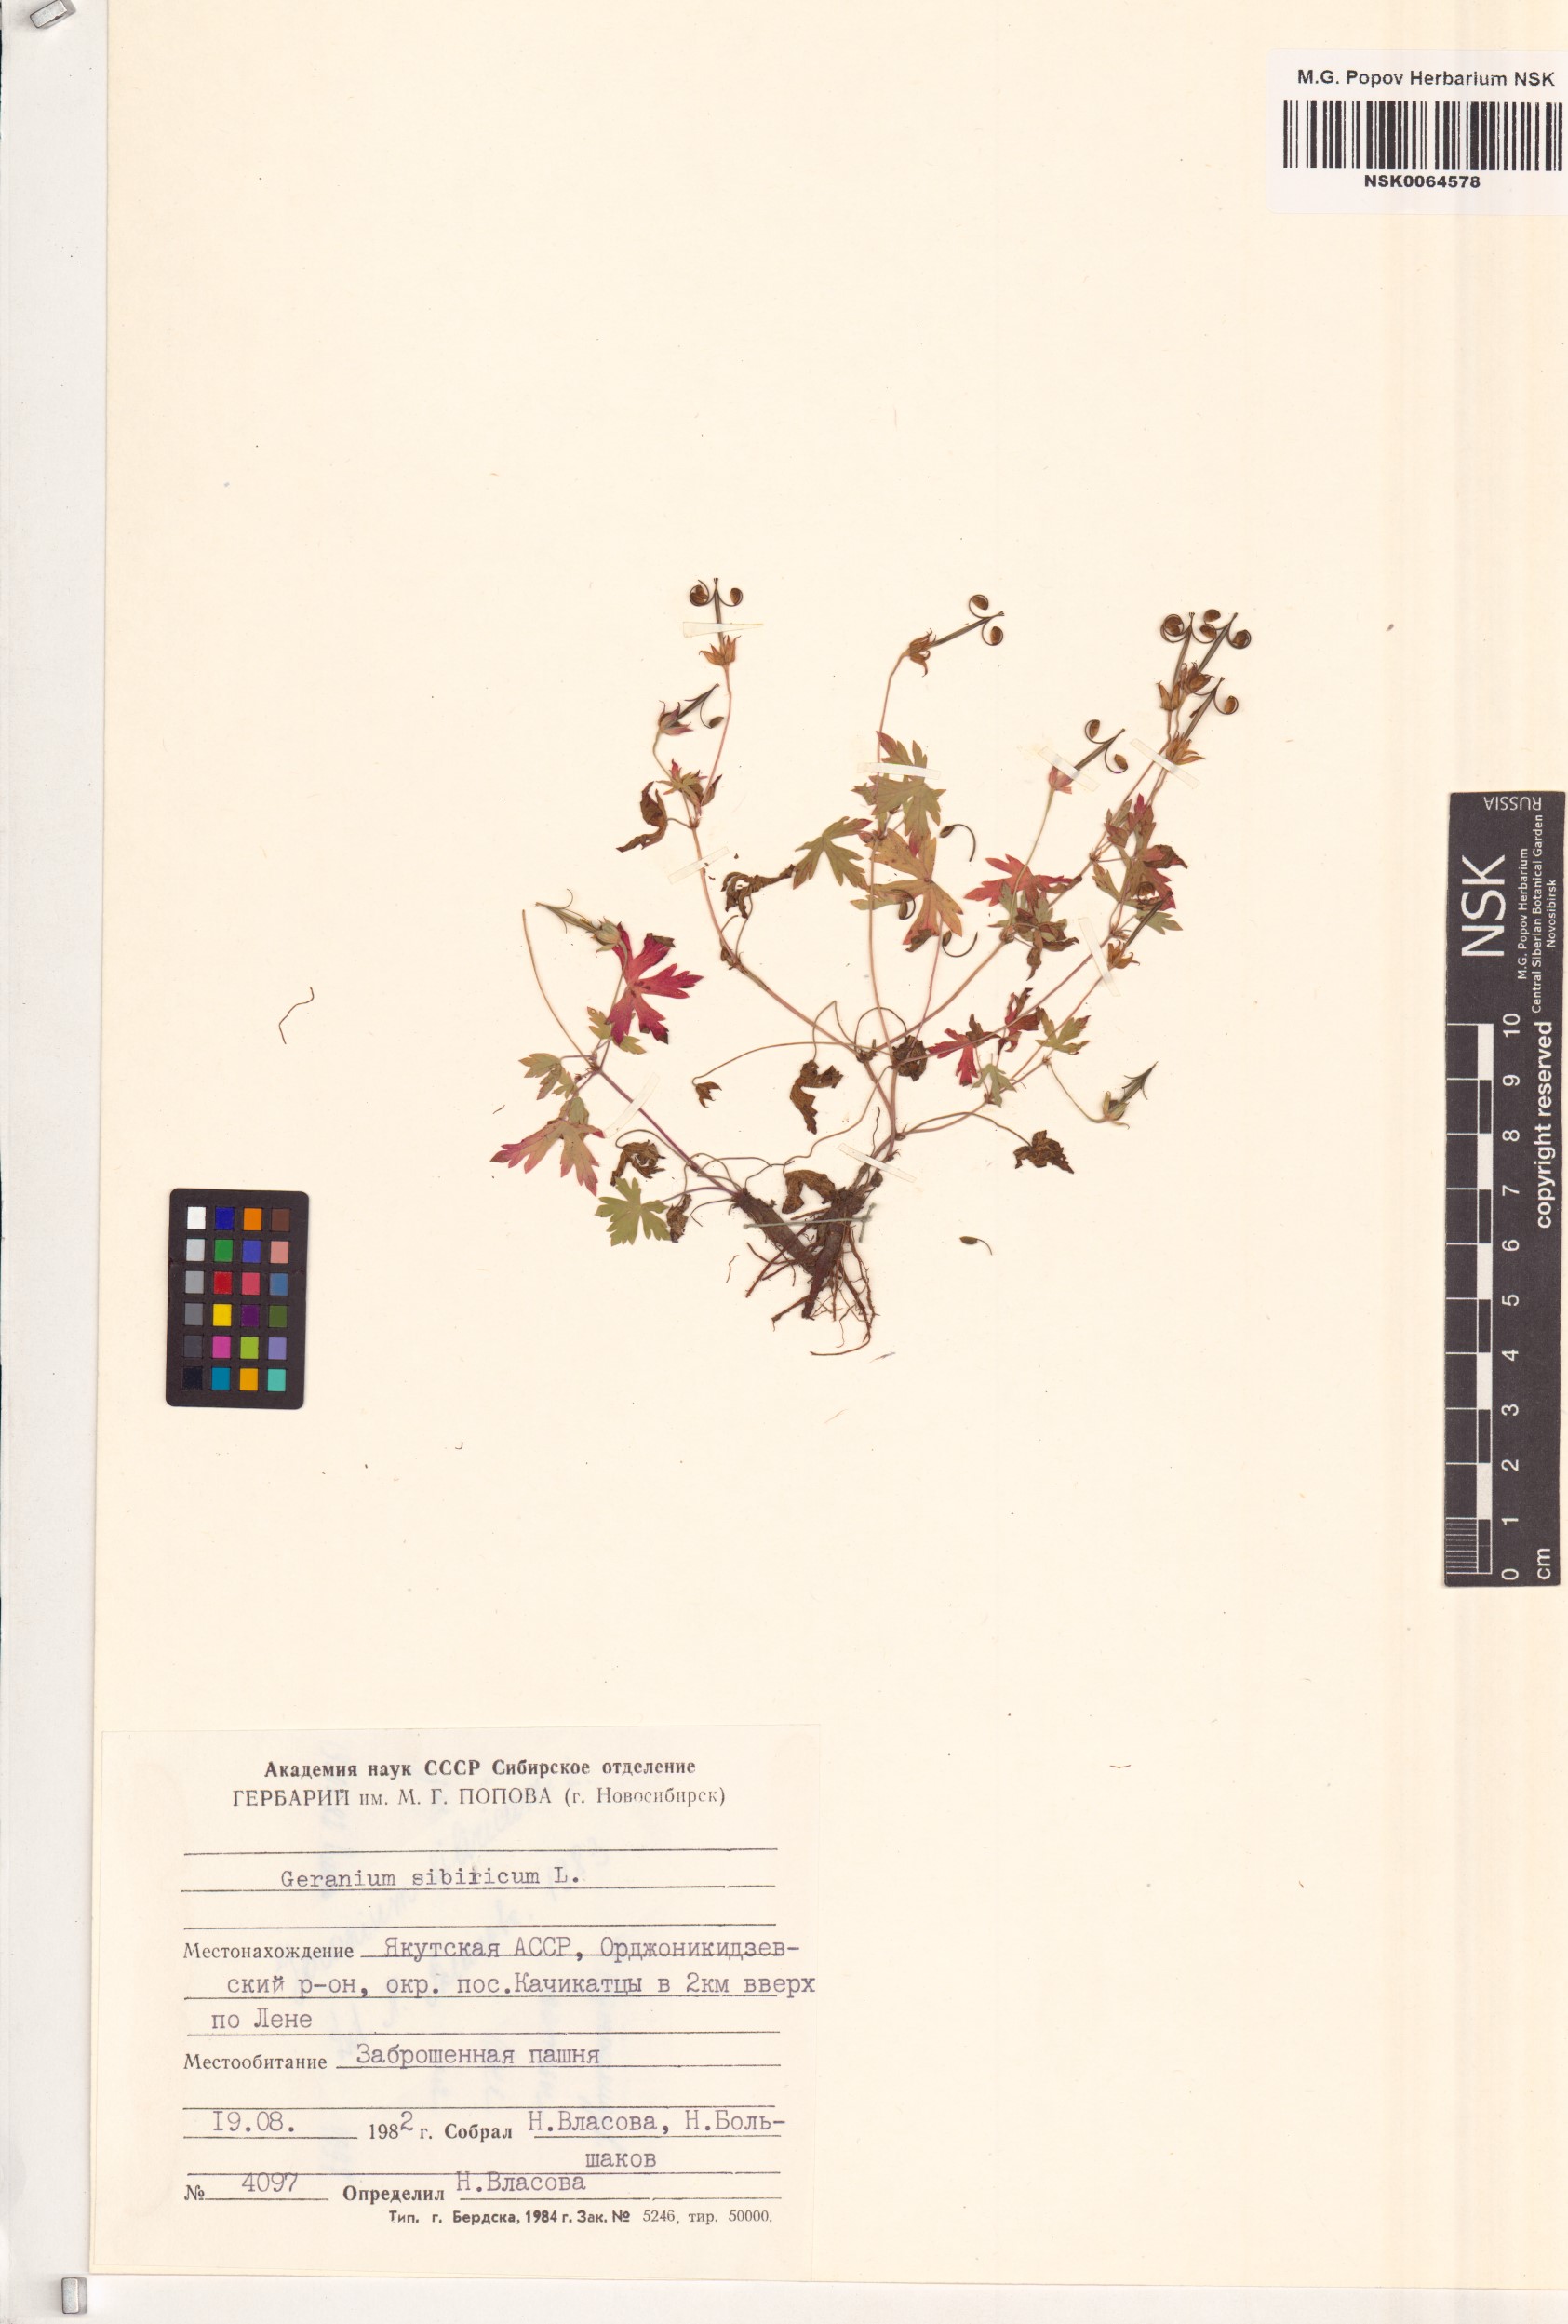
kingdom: Plantae
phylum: Tracheophyta
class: Magnoliopsida
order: Geraniales
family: Geraniaceae
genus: Geranium
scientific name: Geranium sibiricum
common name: Siberian crane's-bill
